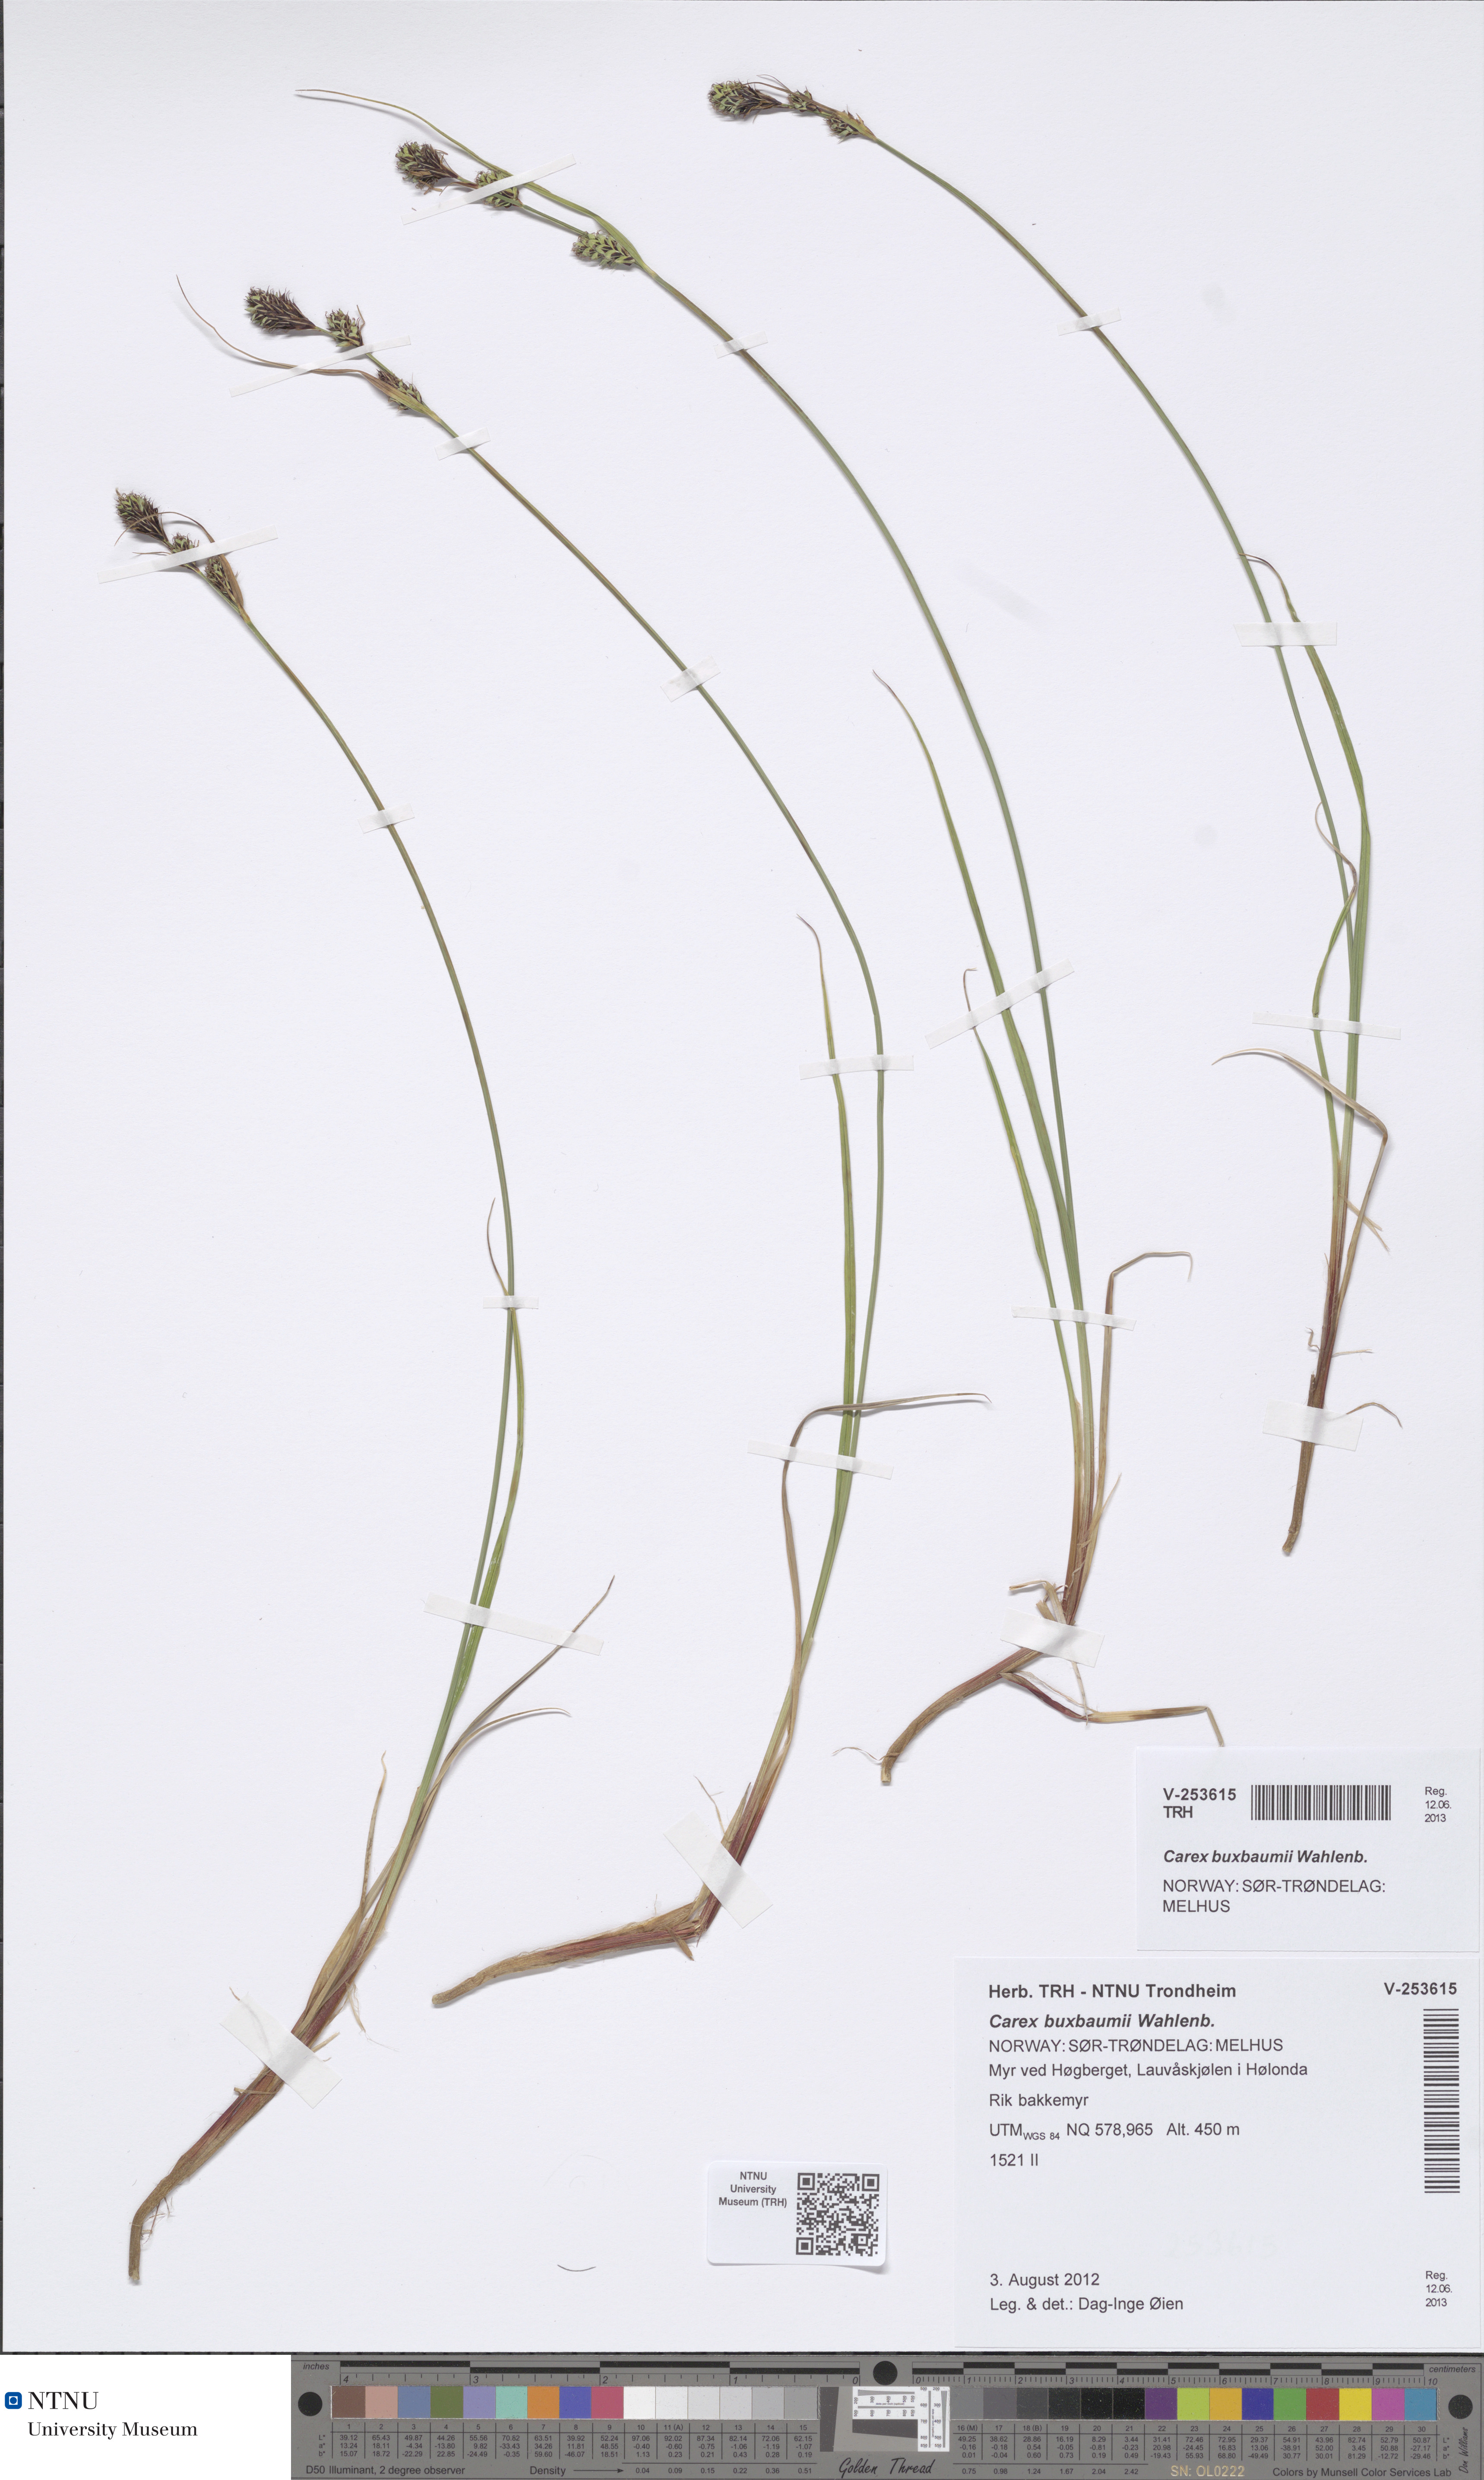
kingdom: Plantae
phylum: Tracheophyta
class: Liliopsida
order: Poales
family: Cyperaceae
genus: Carex
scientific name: Carex buxbaumii
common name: Club sedge
